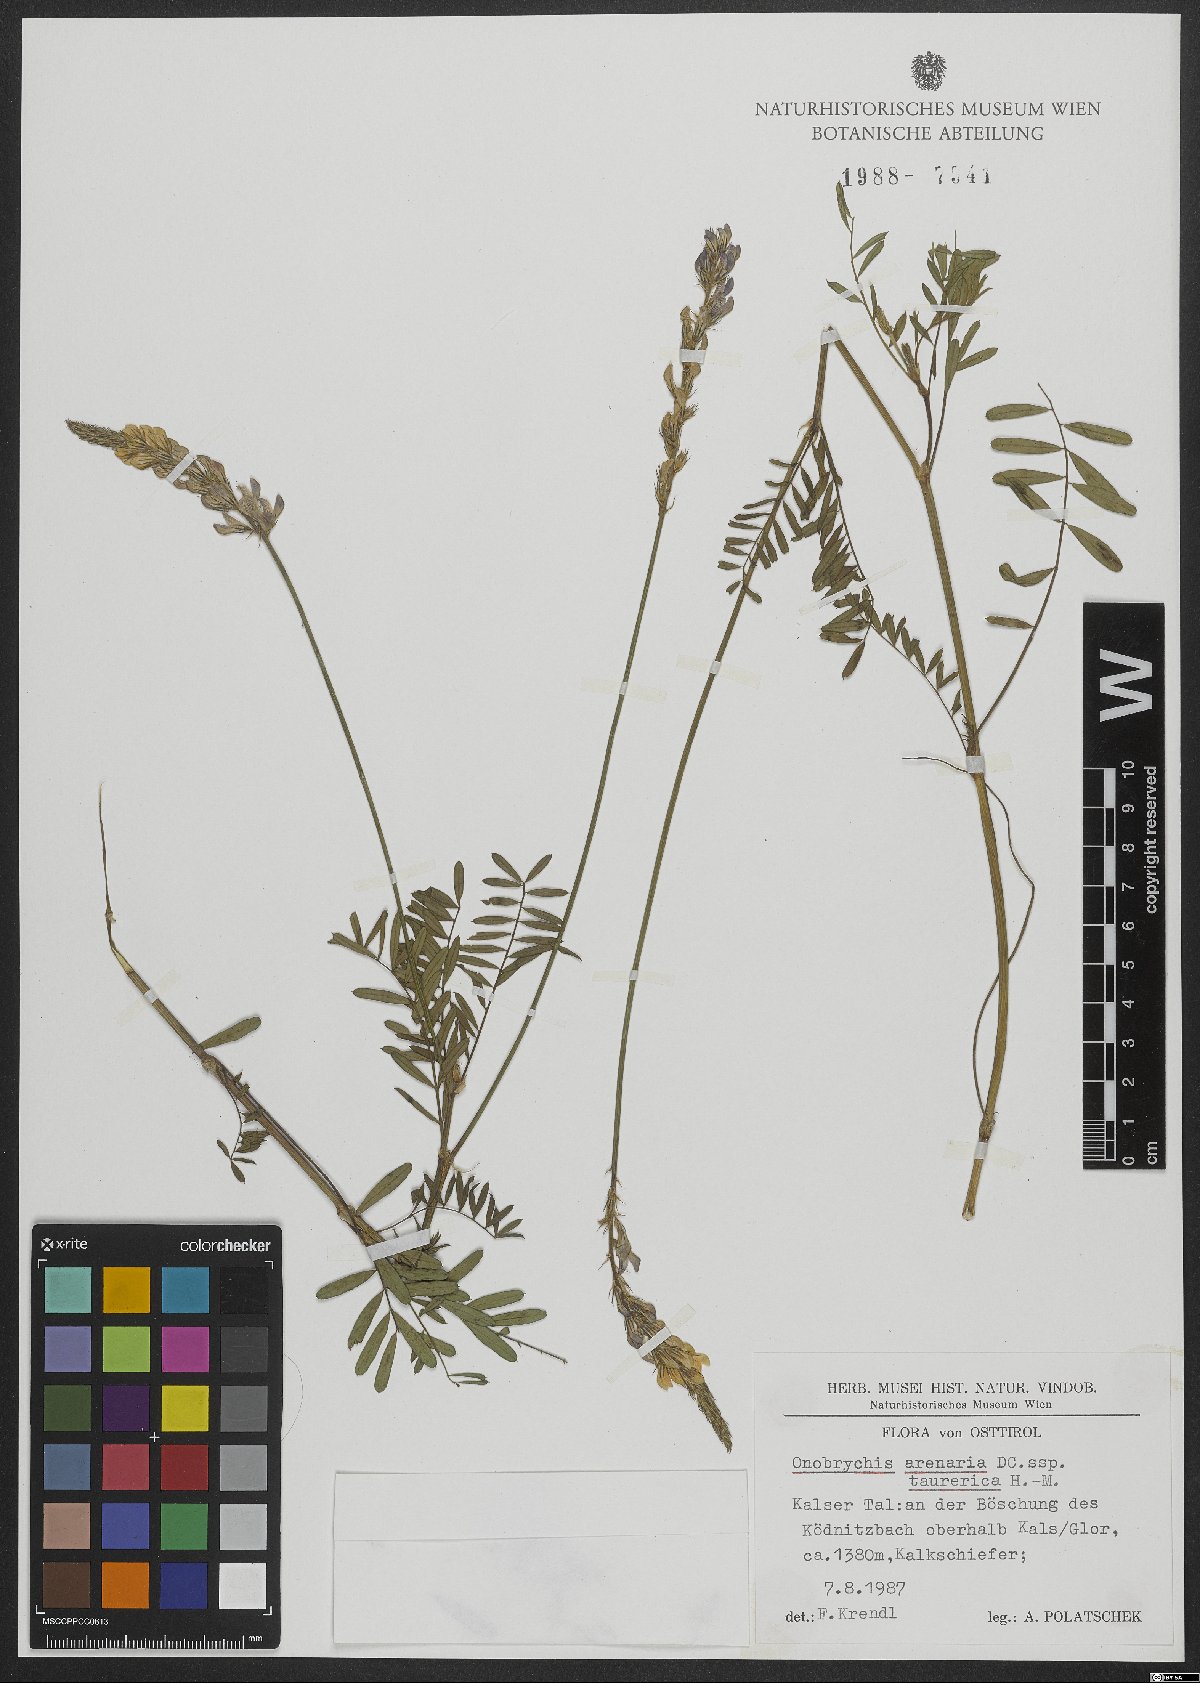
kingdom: Plantae
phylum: Tracheophyta
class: Magnoliopsida
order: Fabales
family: Fabaceae
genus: Onobrychis
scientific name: Onobrychis arenaria
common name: Sand esparcet
